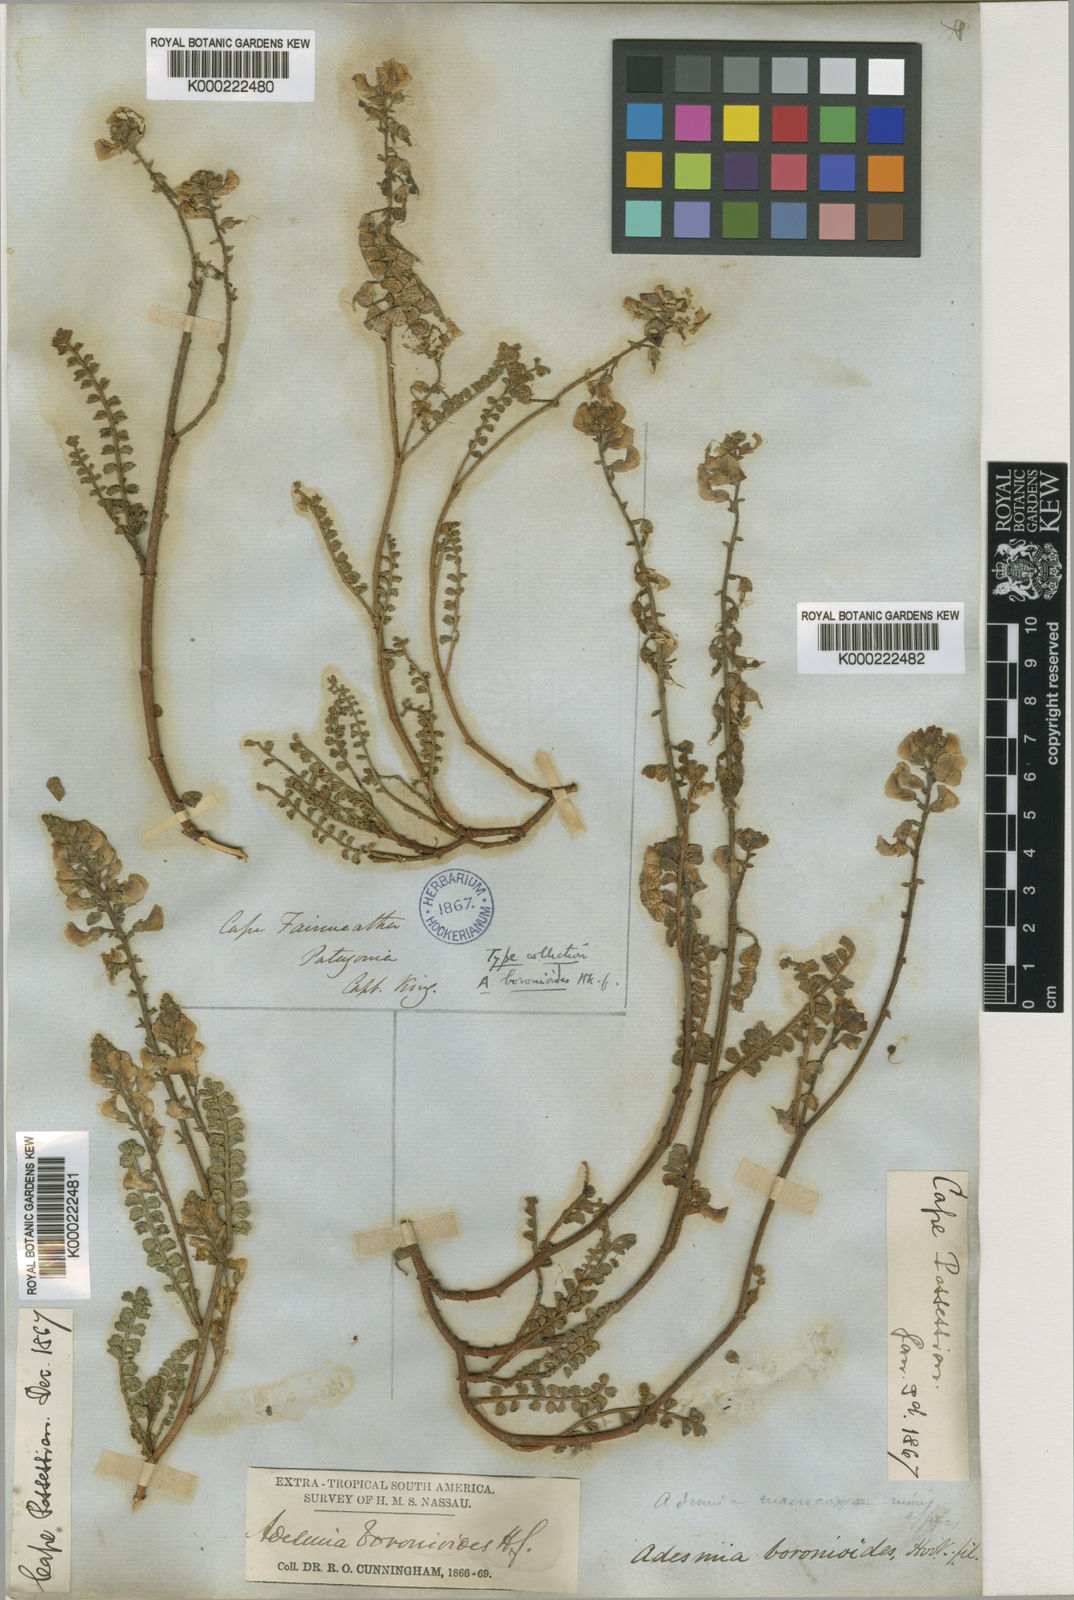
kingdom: Plantae
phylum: Tracheophyta
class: Magnoliopsida
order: Fabales
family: Fabaceae
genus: Adesmia
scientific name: Adesmia boronioides
